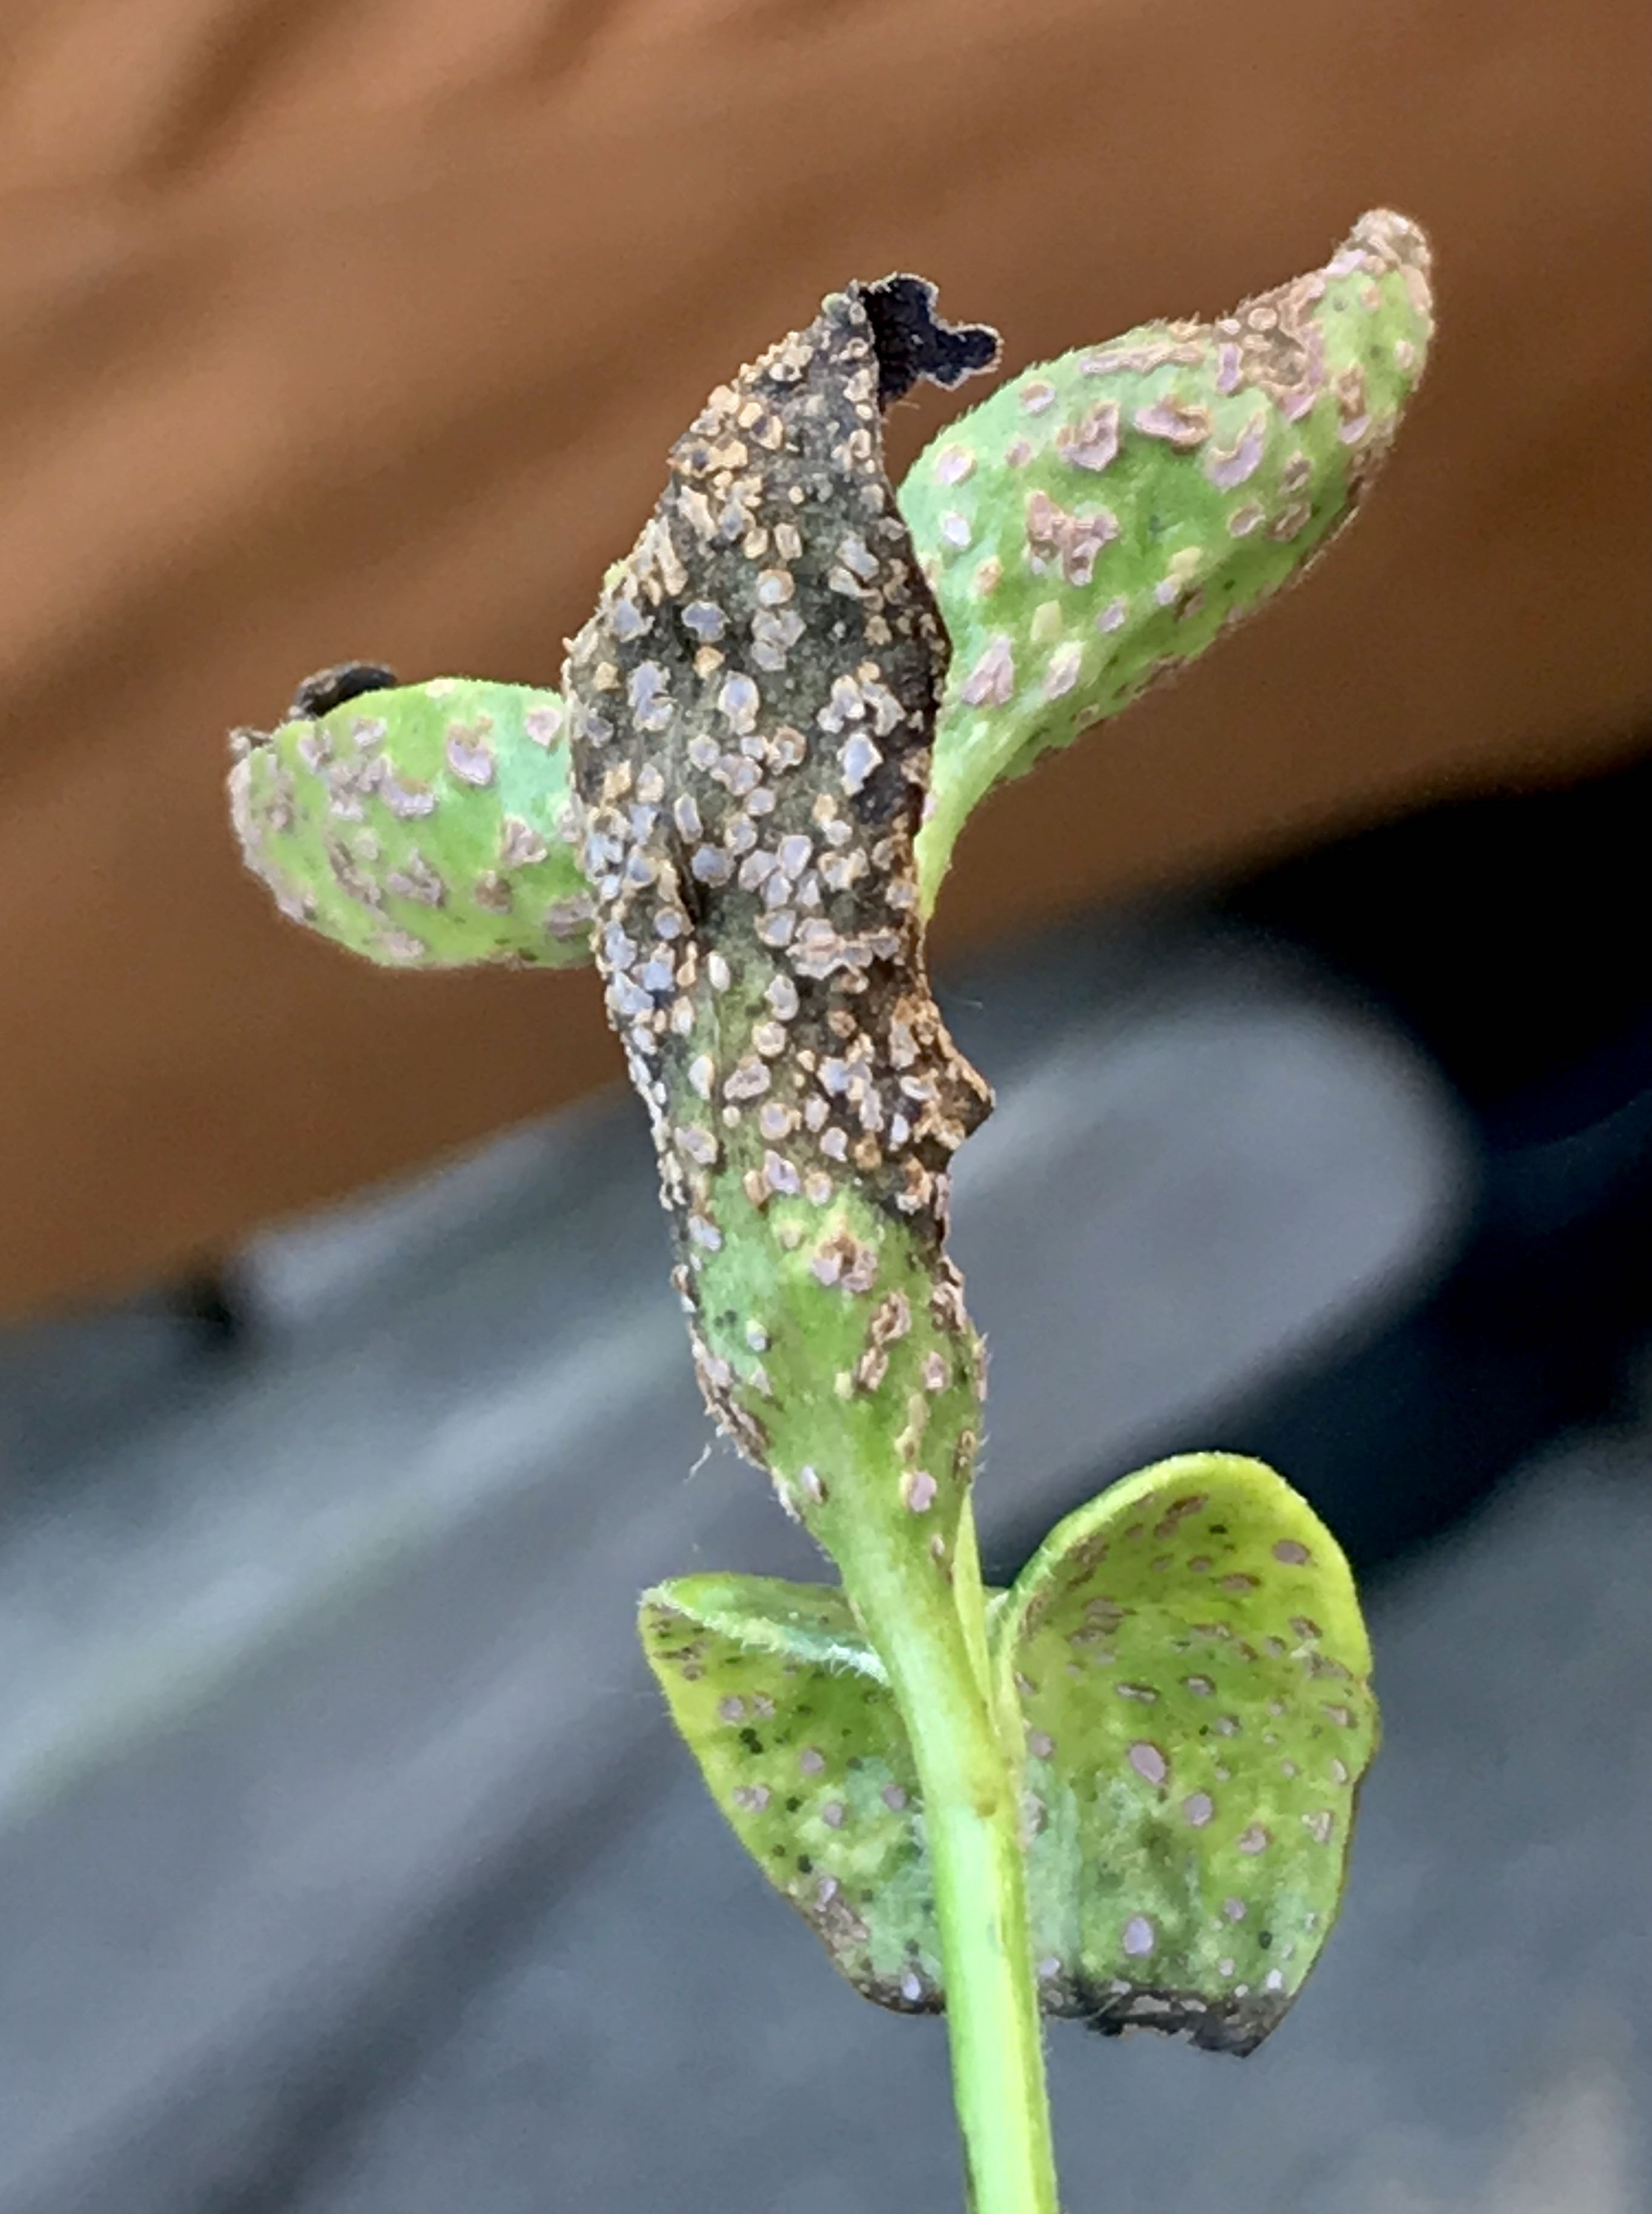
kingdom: Fungi
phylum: Basidiomycota
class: Pucciniomycetes
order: Pucciniales
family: Pucciniaceae
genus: Puccinia
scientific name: Puccinia vincae
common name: Periwinkle rust
